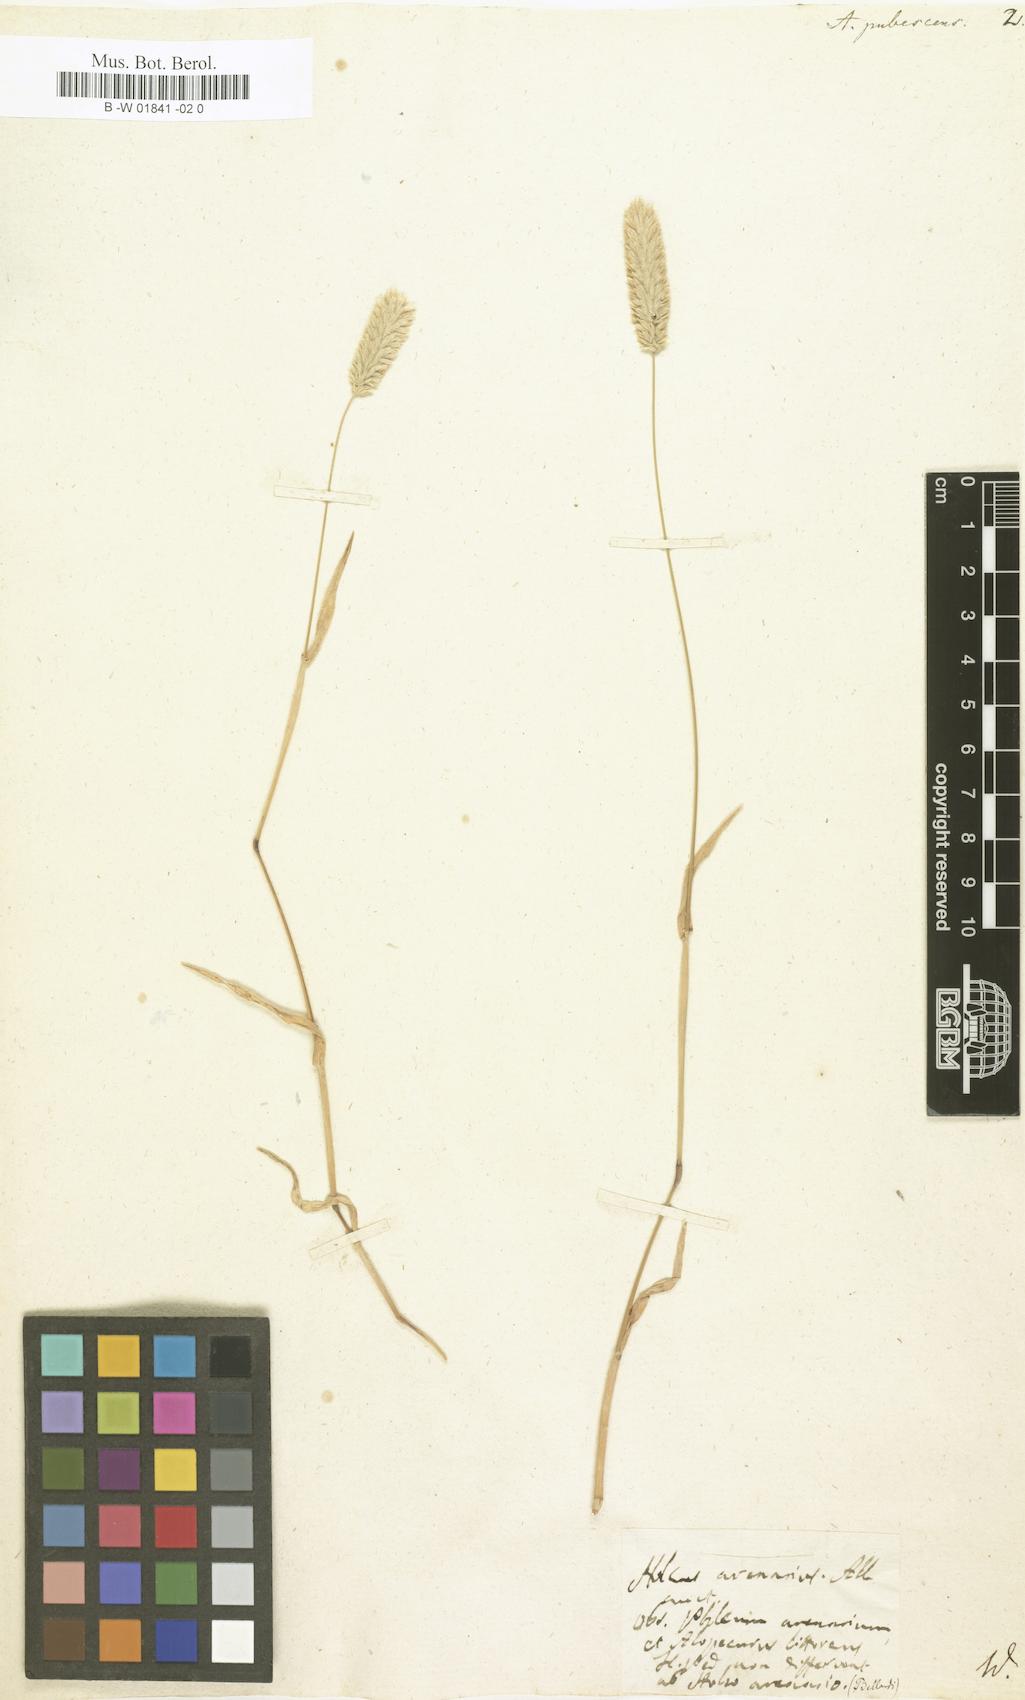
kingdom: Plantae
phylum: Tracheophyta
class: Liliopsida
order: Poales
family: Poaceae
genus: Rostraria
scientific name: Rostraria litorea
